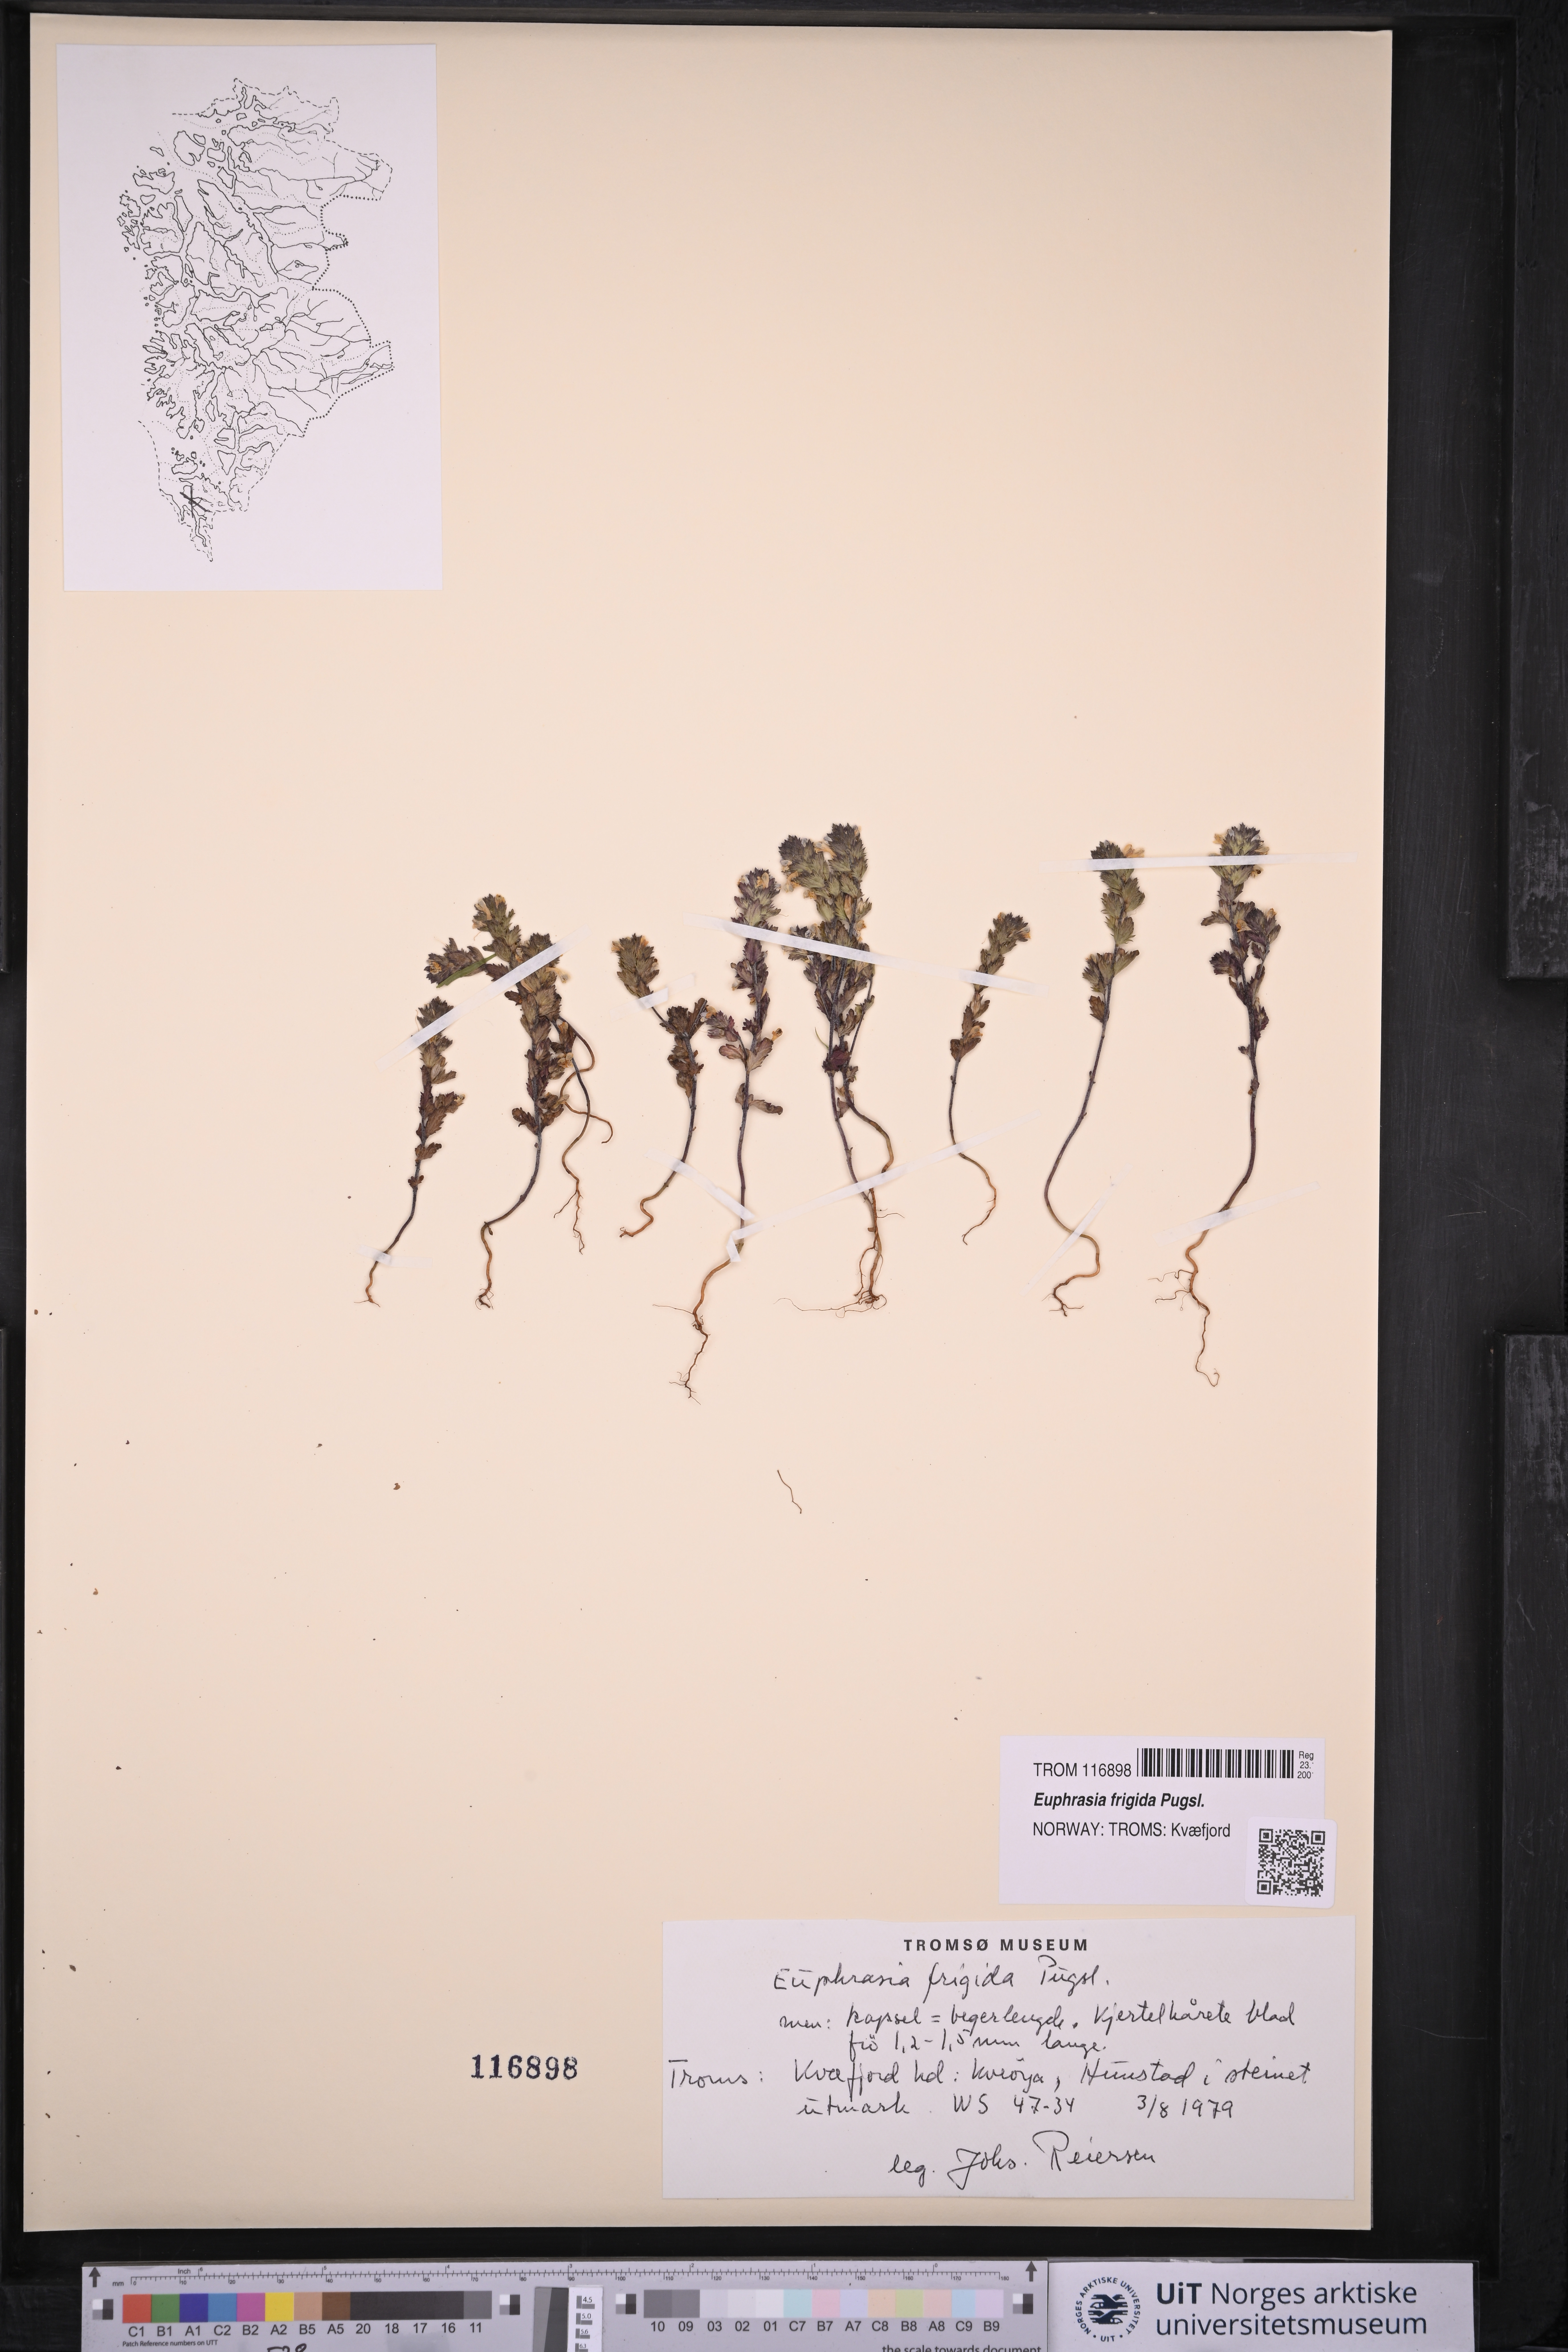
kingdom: Plantae
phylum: Tracheophyta
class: Magnoliopsida
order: Lamiales
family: Orobanchaceae
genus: Euphrasia
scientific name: Euphrasia frigida
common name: An eyebright
